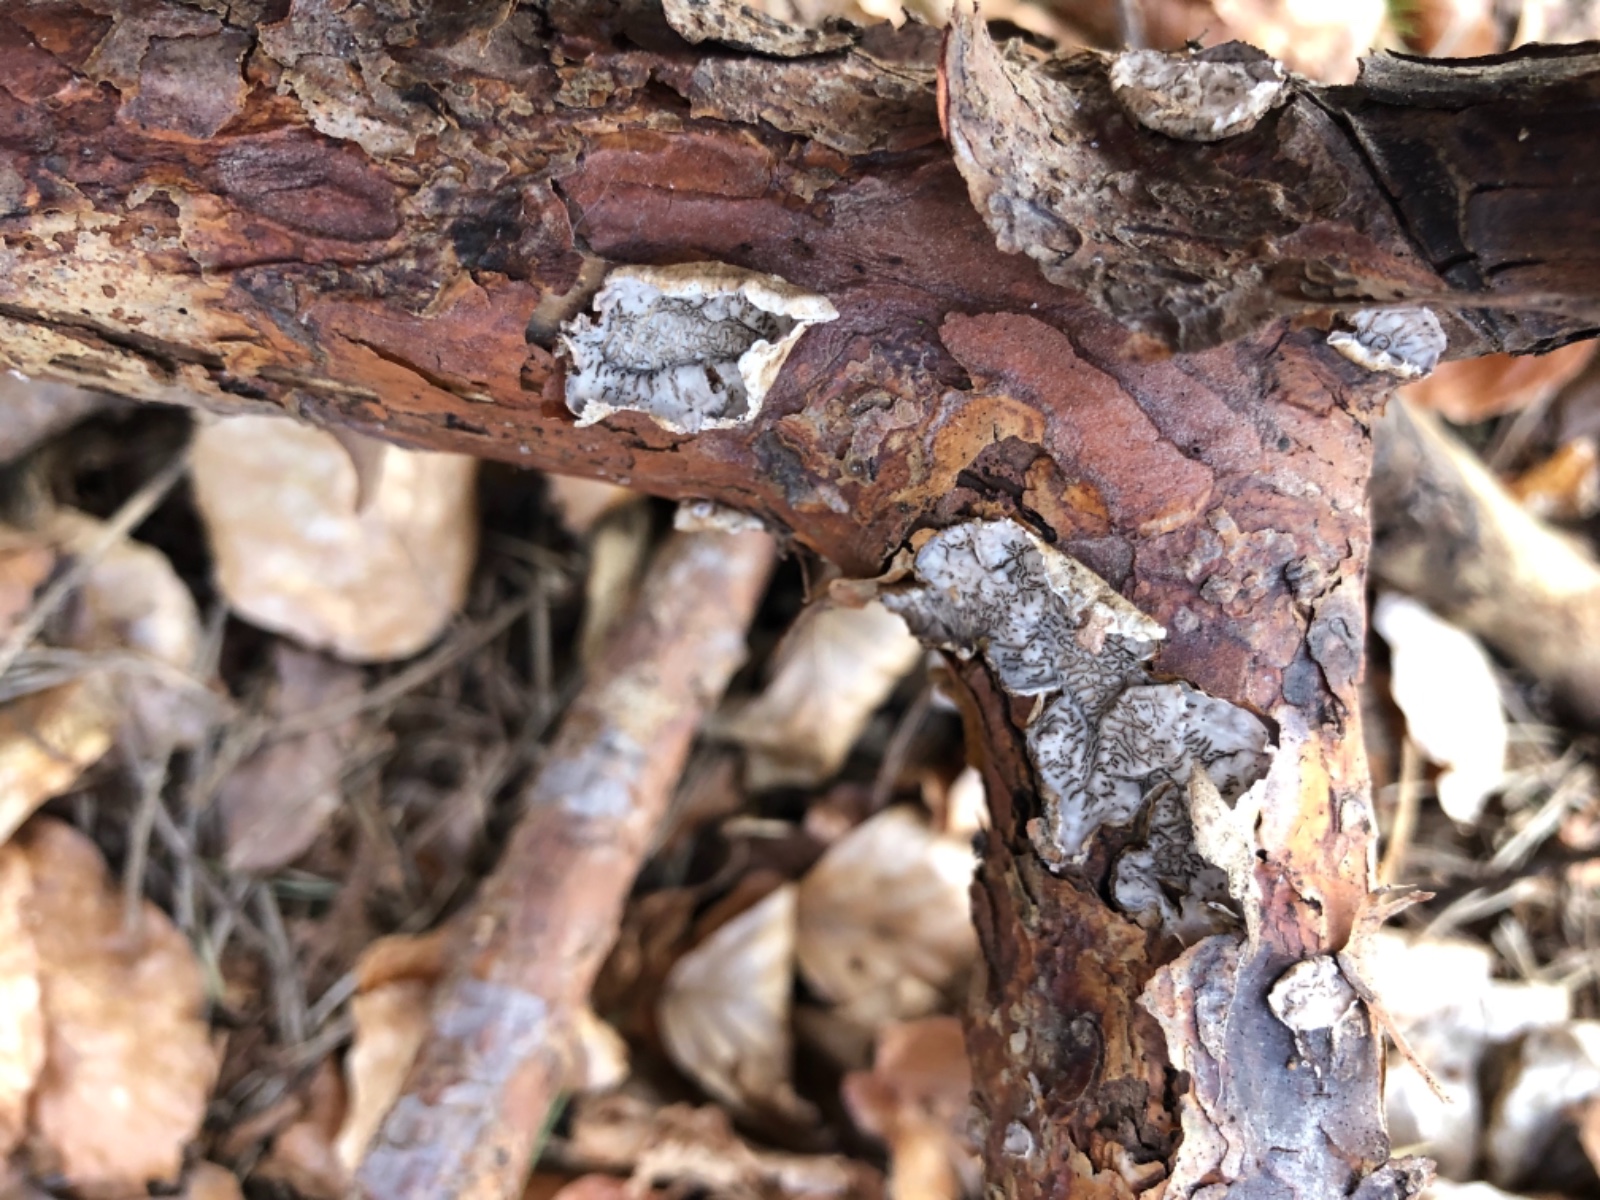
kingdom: Fungi
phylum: Basidiomycota
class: Agaricomycetes
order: Corticiales
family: Corticiaceae
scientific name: Corticiaceae
